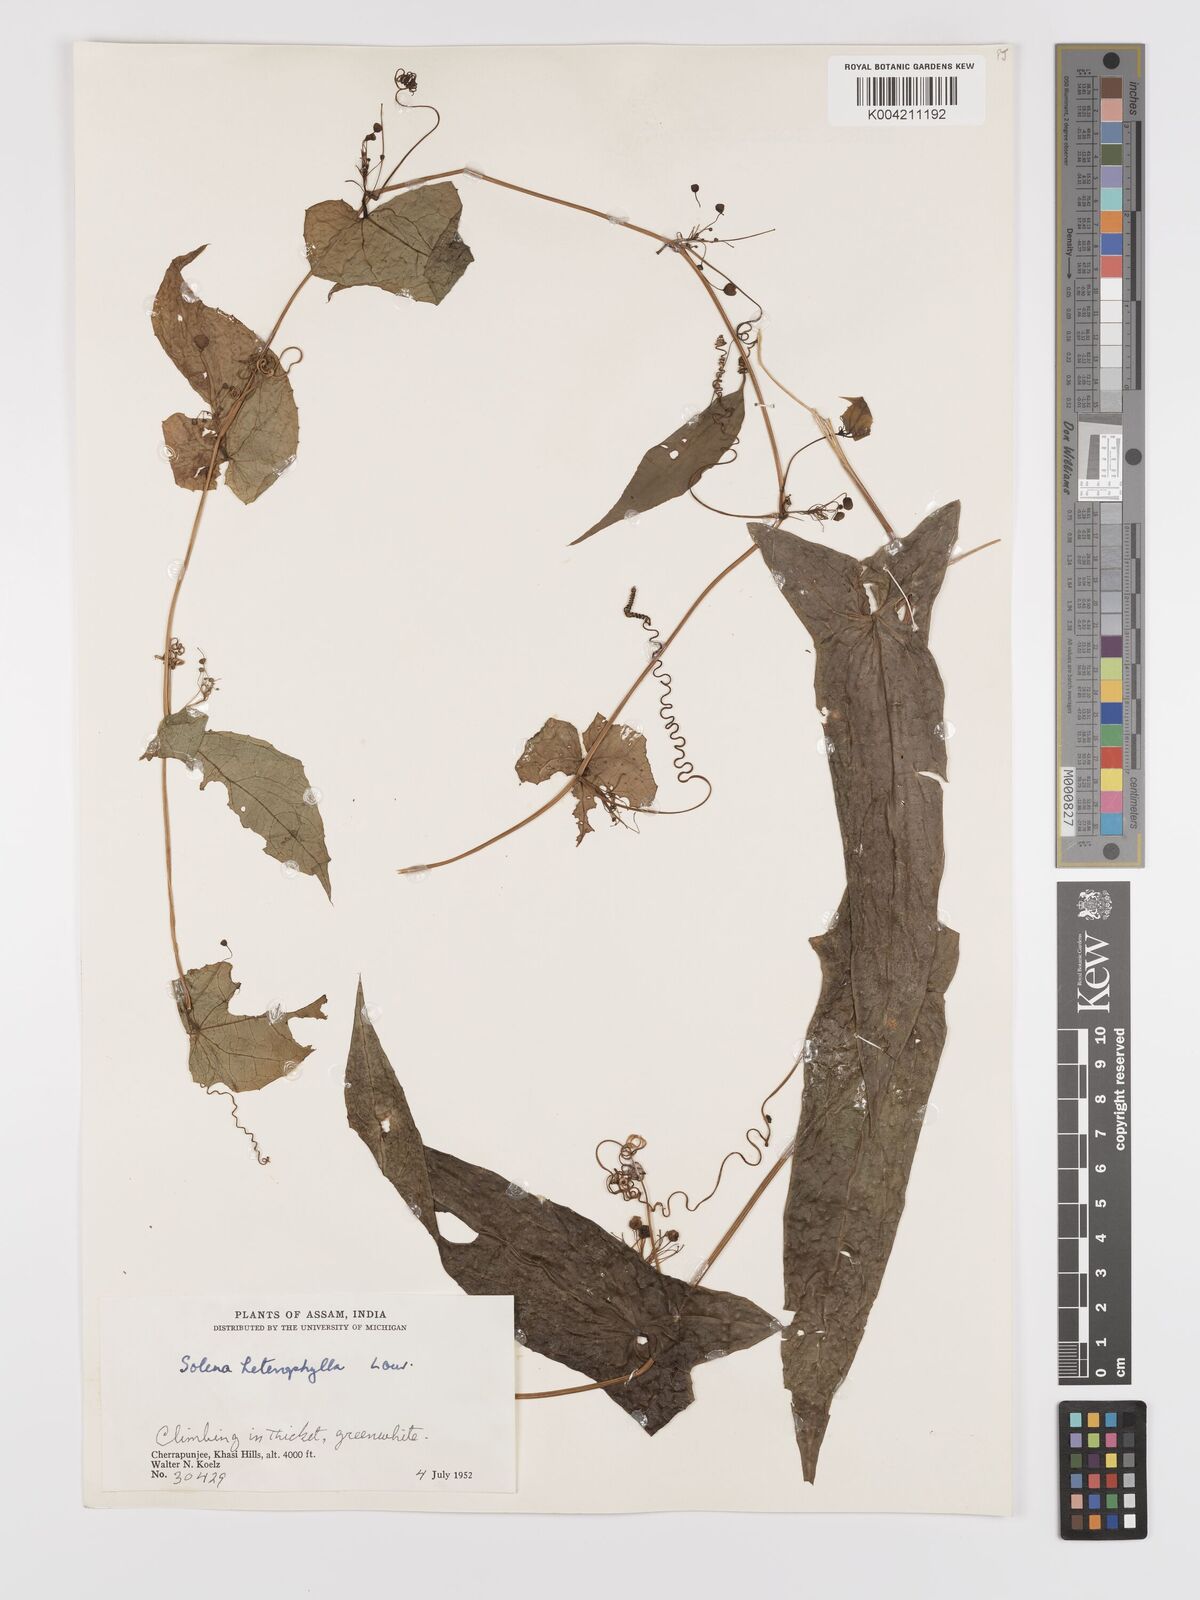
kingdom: Plantae
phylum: Tracheophyta
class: Magnoliopsida
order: Cucurbitales
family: Cucurbitaceae
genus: Solena
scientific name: Solena amplexicaulis
